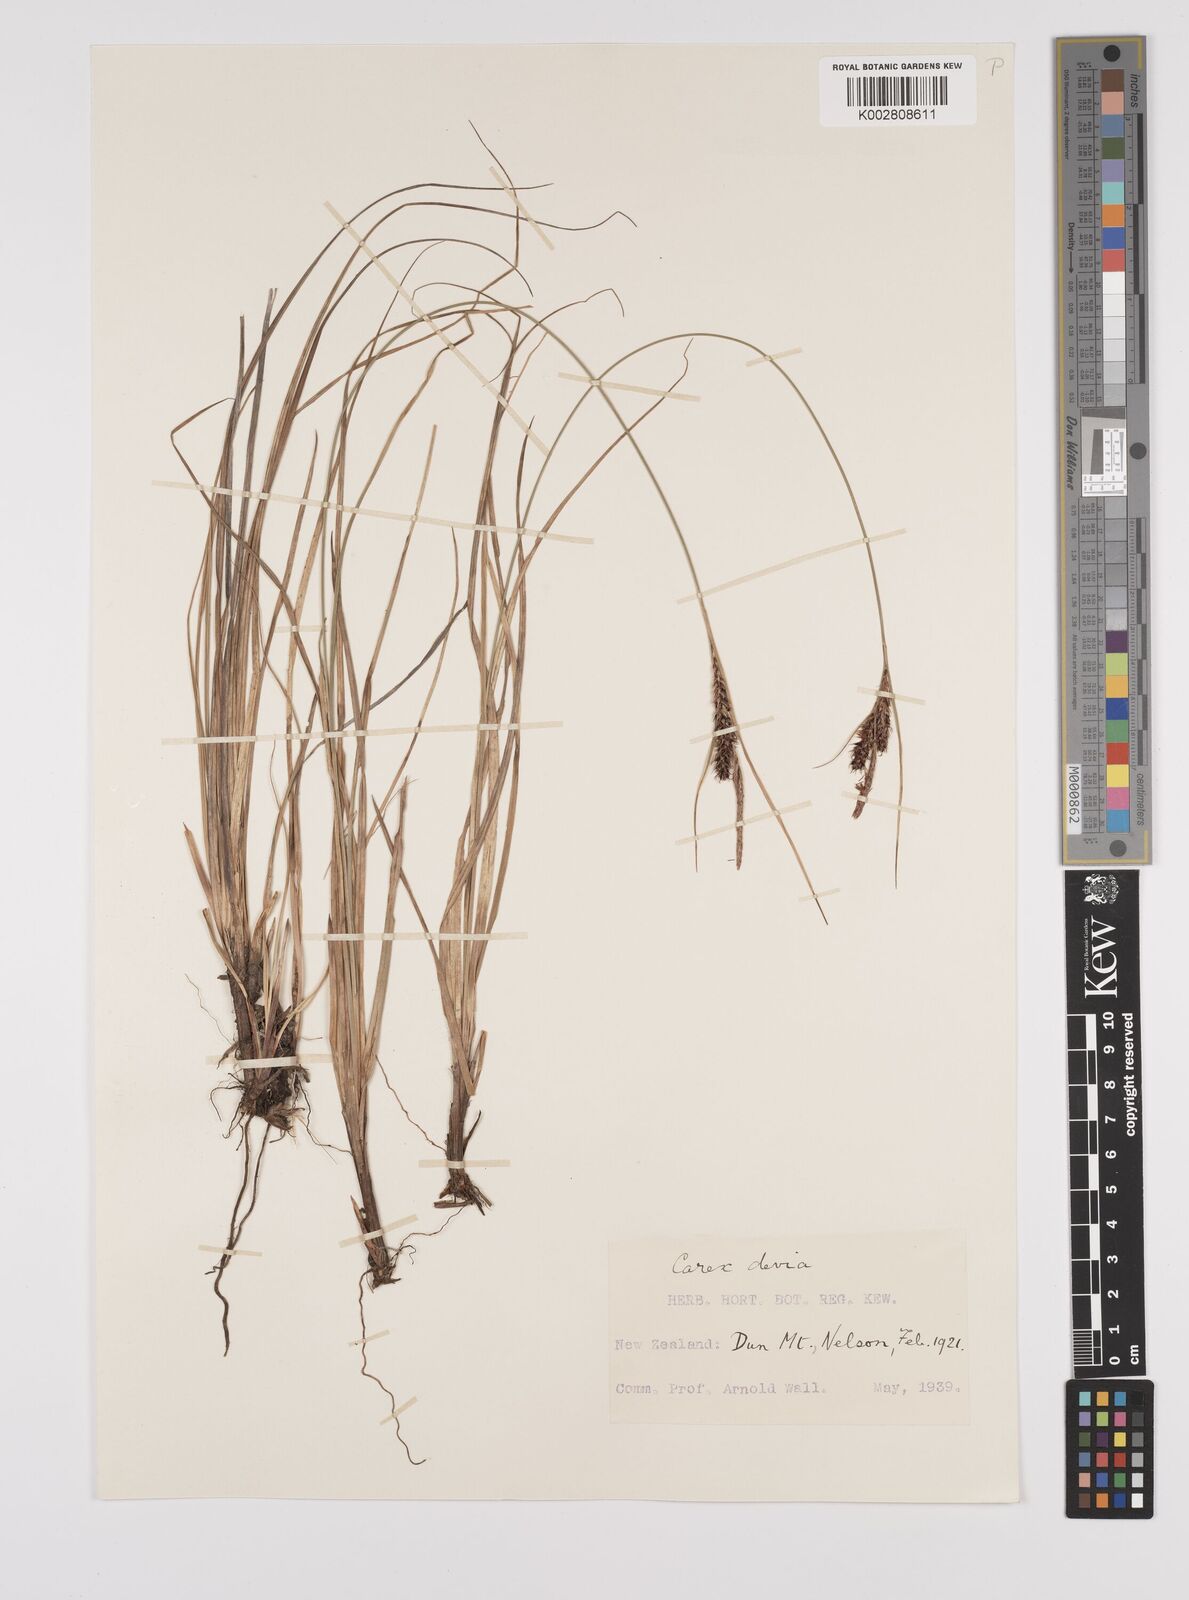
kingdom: Plantae
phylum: Tracheophyta
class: Liliopsida
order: Poales
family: Cyperaceae
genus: Carex
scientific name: Carex devia
